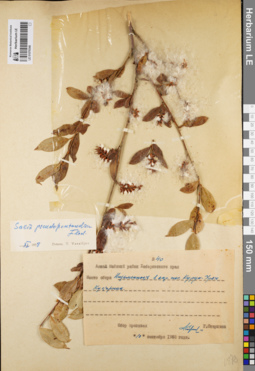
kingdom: Plantae
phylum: Tracheophyta
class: Magnoliopsida
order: Malpighiales
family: Salicaceae
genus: Salix
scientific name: Salix pseudopentandra
